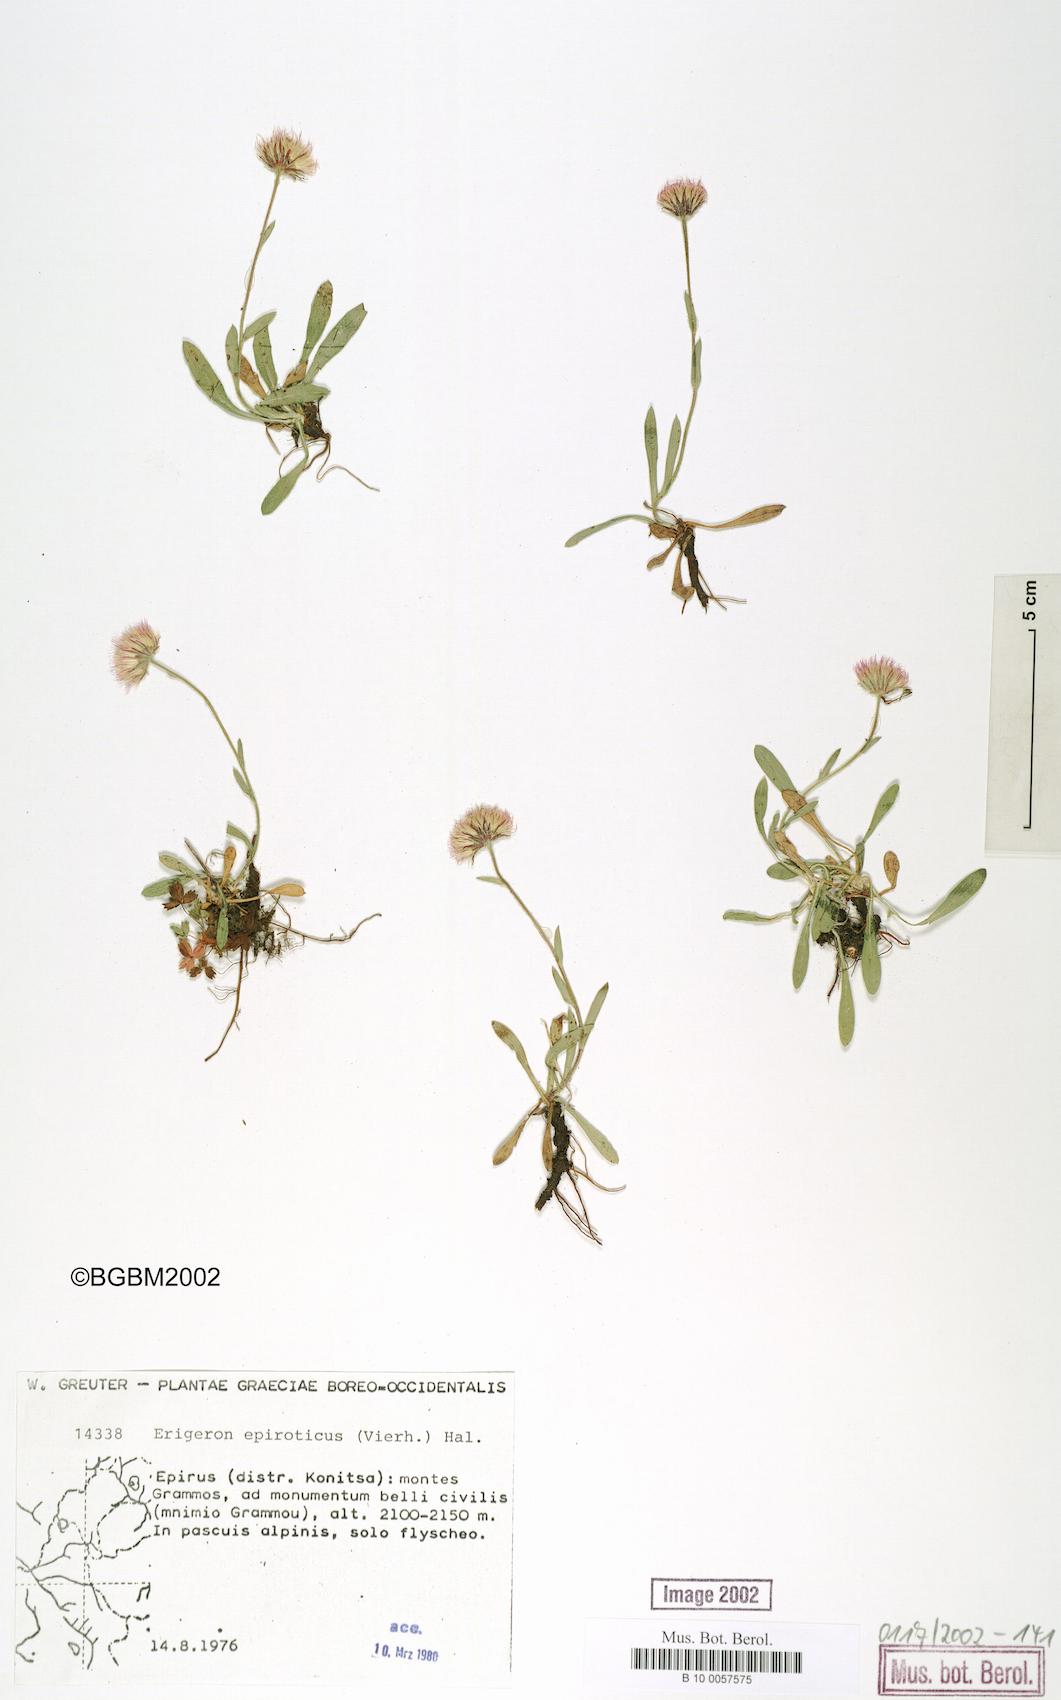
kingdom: Plantae
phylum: Tracheophyta
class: Magnoliopsida
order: Asterales
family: Asteraceae
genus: Erigeron
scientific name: Erigeron epiroticus
